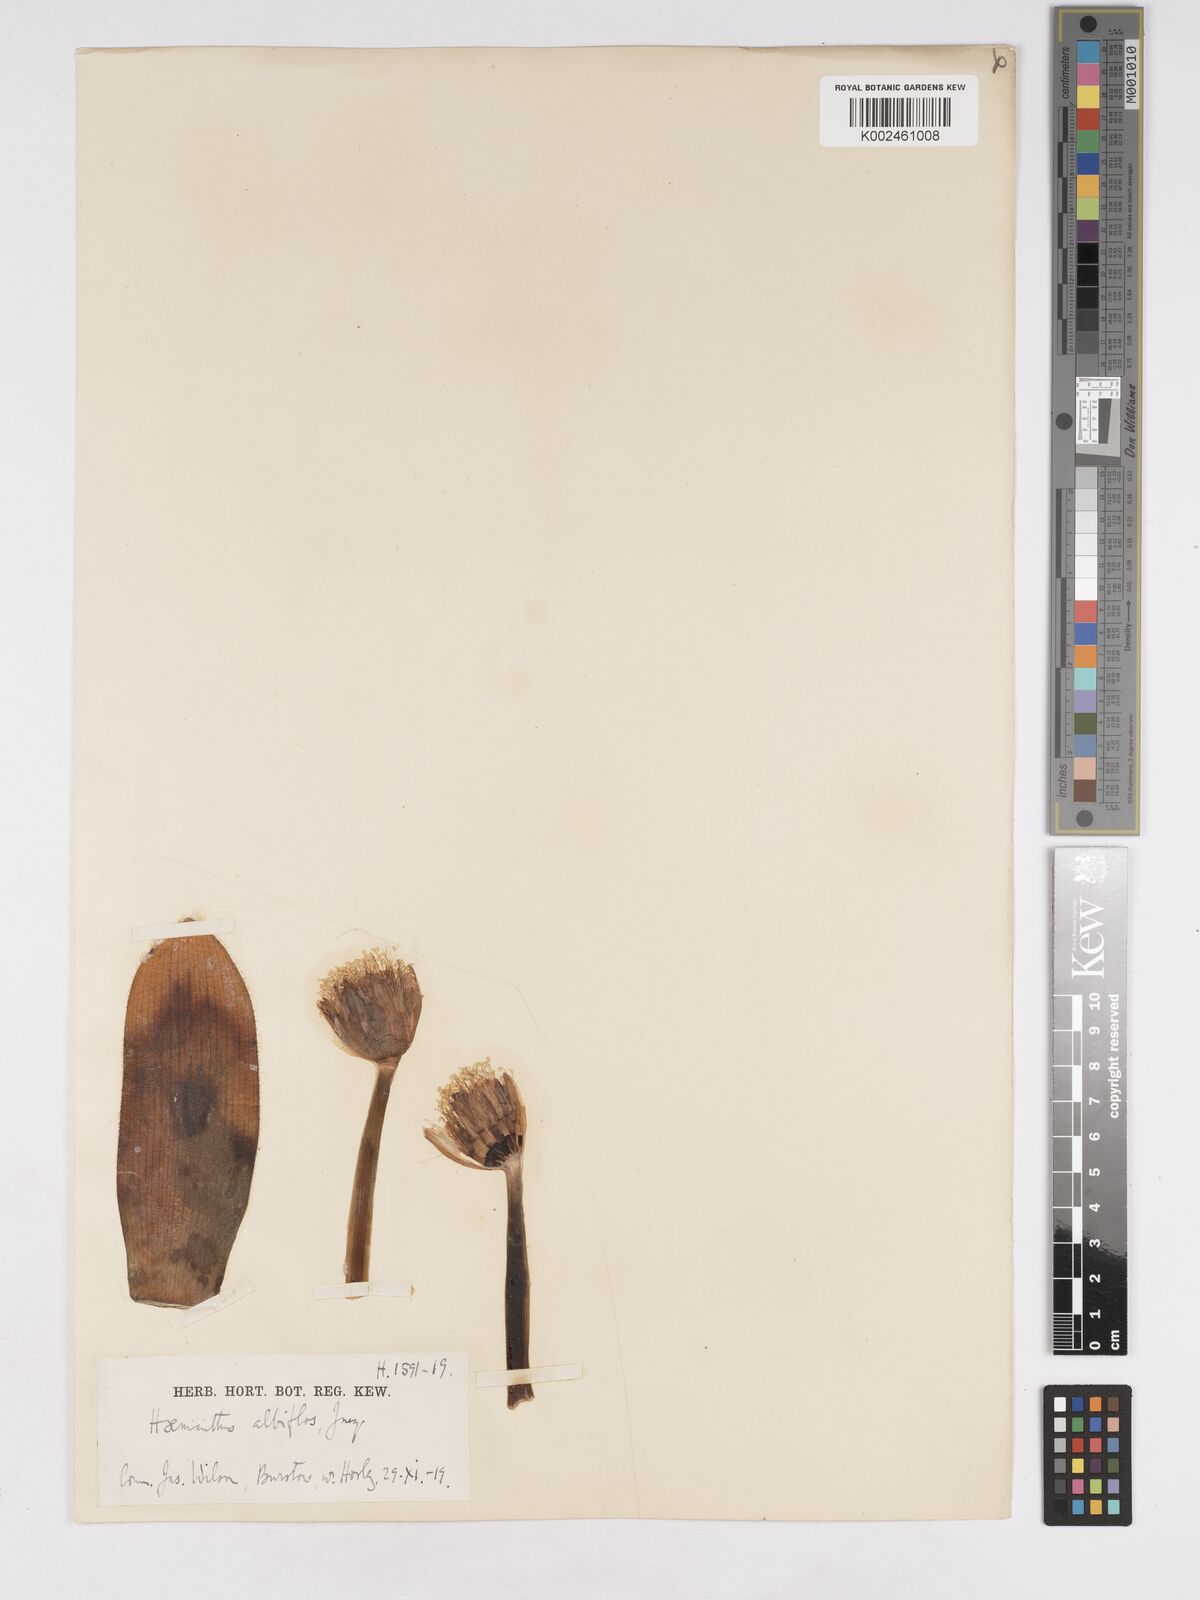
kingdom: Plantae
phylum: Tracheophyta
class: Liliopsida
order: Asparagales
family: Amaryllidaceae
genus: Haemanthus
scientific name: Haemanthus albiflos
